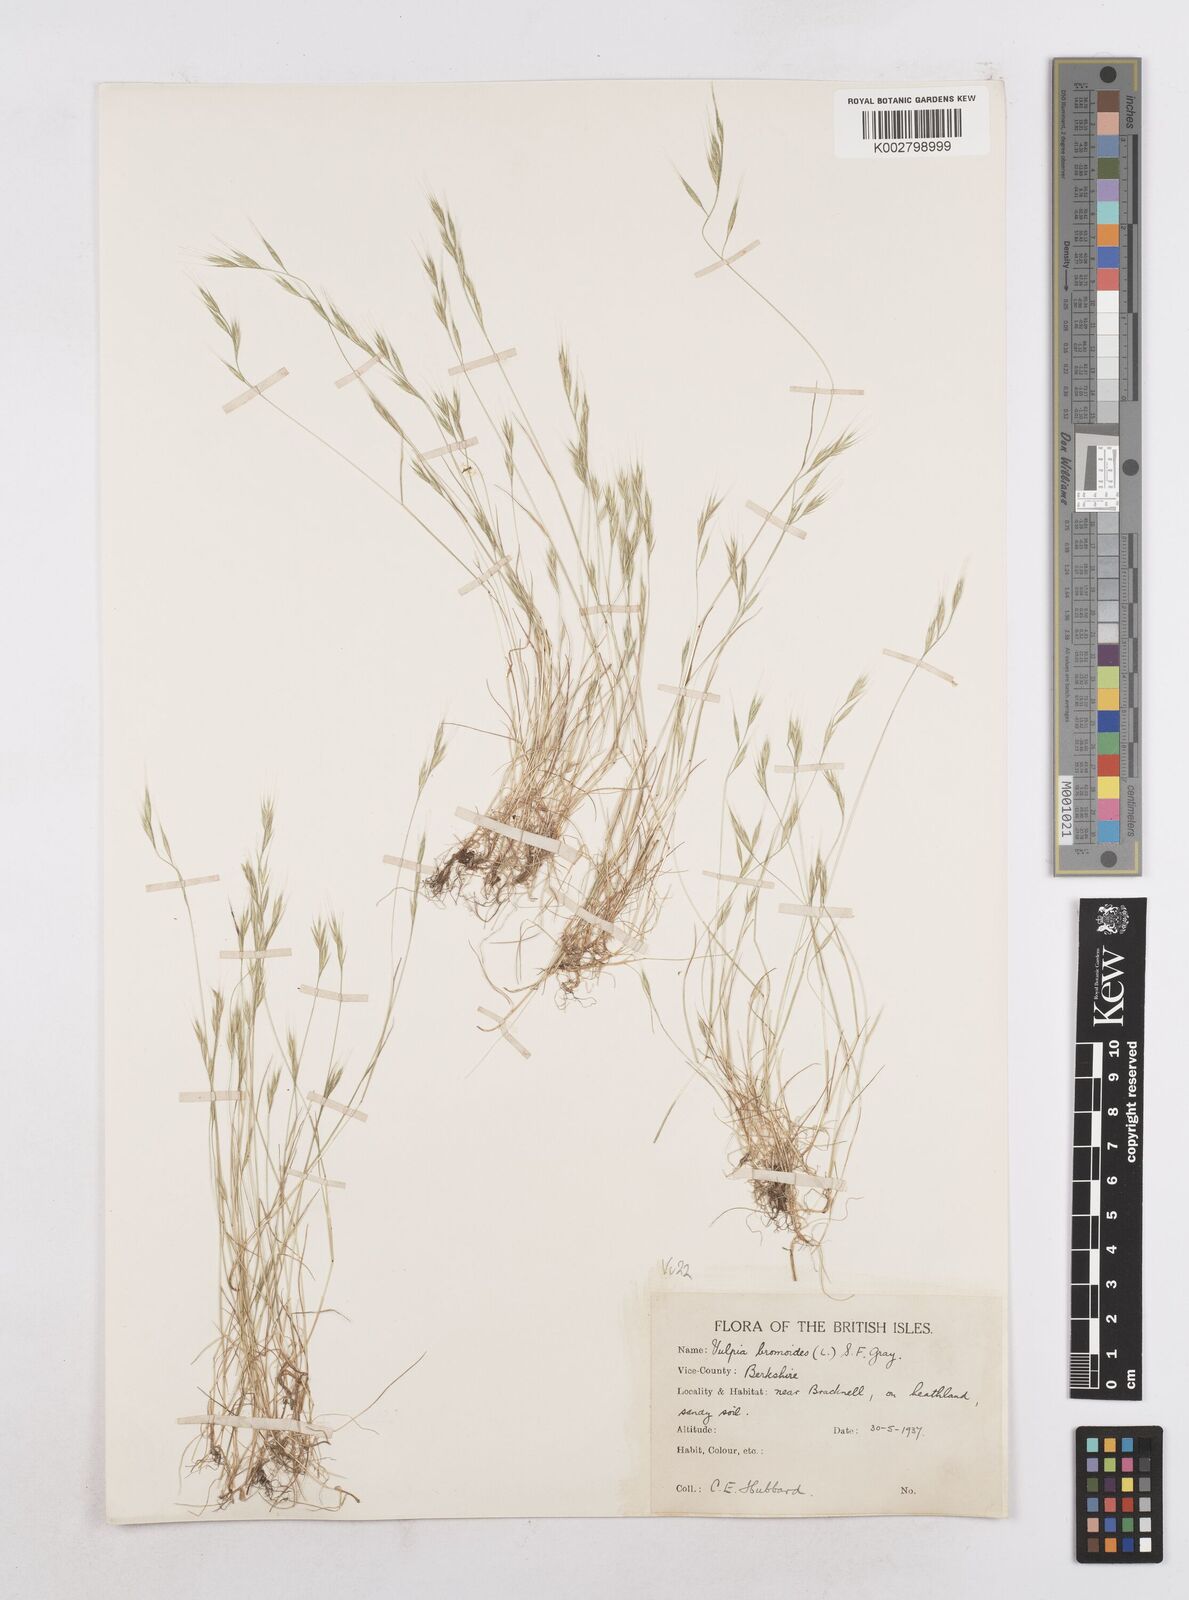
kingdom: Plantae
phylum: Tracheophyta
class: Liliopsida
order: Poales
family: Poaceae
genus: Festuca
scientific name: Festuca bromoides
